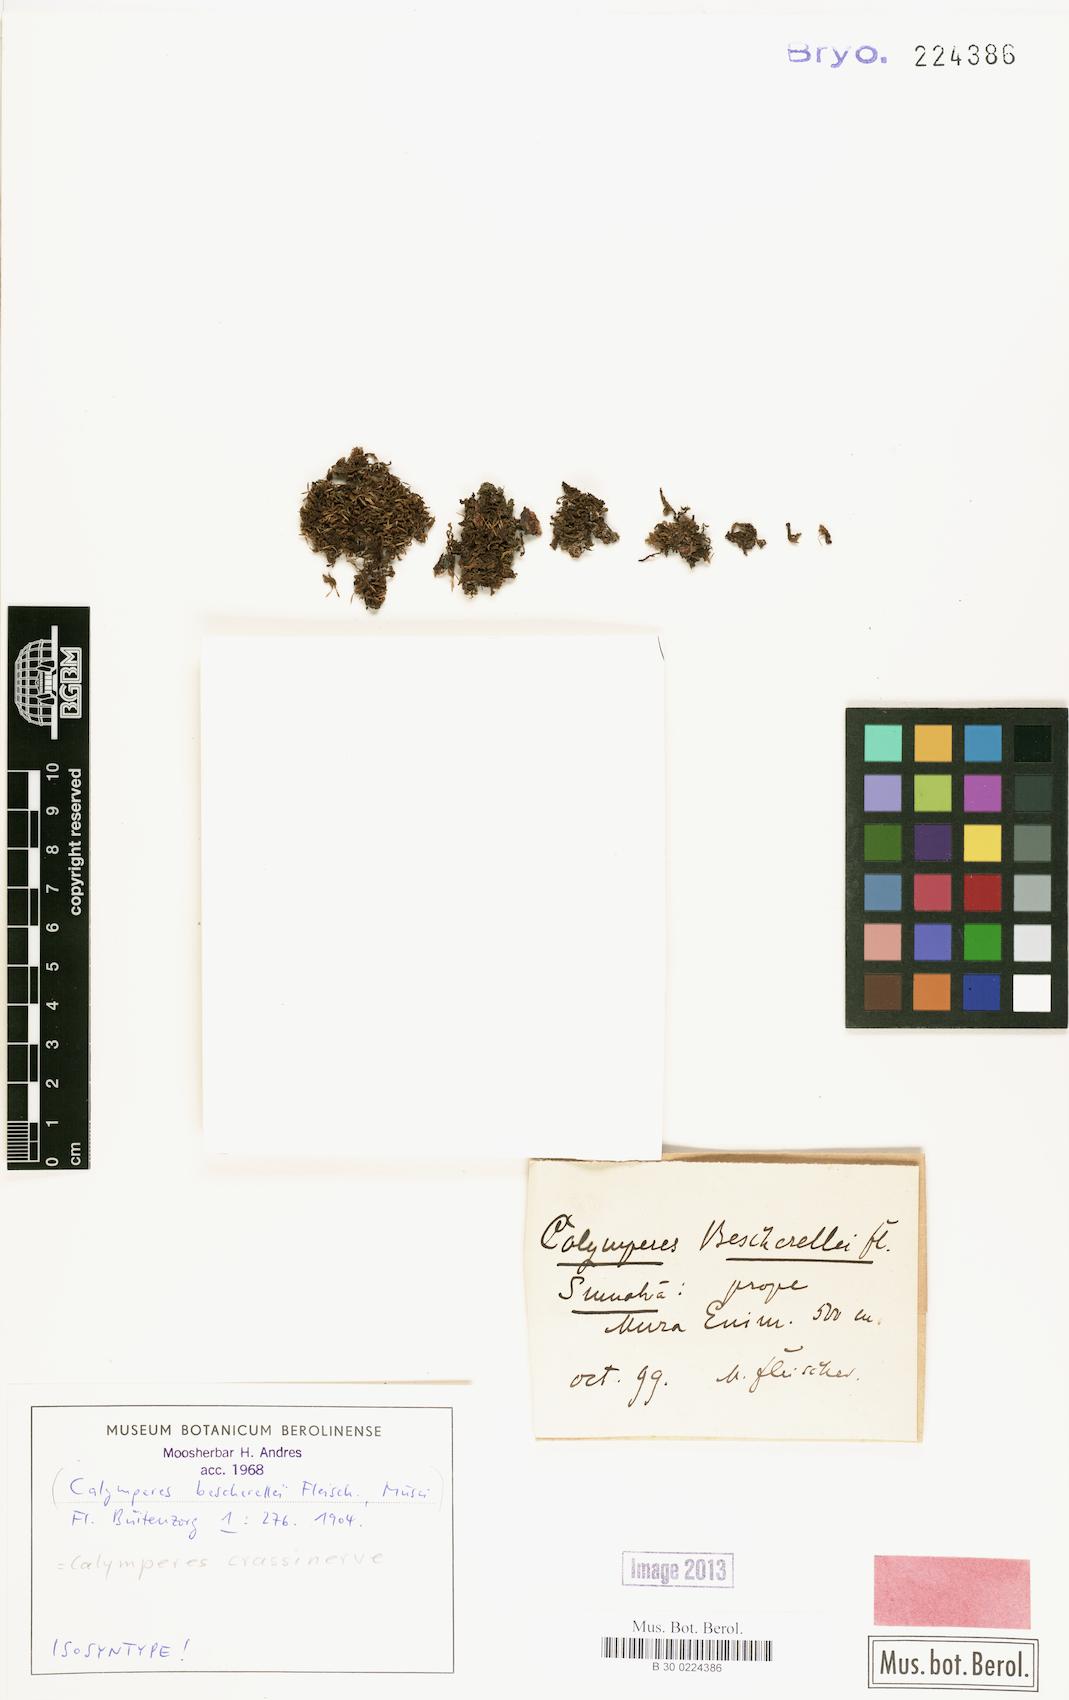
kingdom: Plantae
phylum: Bryophyta
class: Bryopsida
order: Dicranales
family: Calymperaceae
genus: Calymperes
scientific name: Calymperes crassinerve
